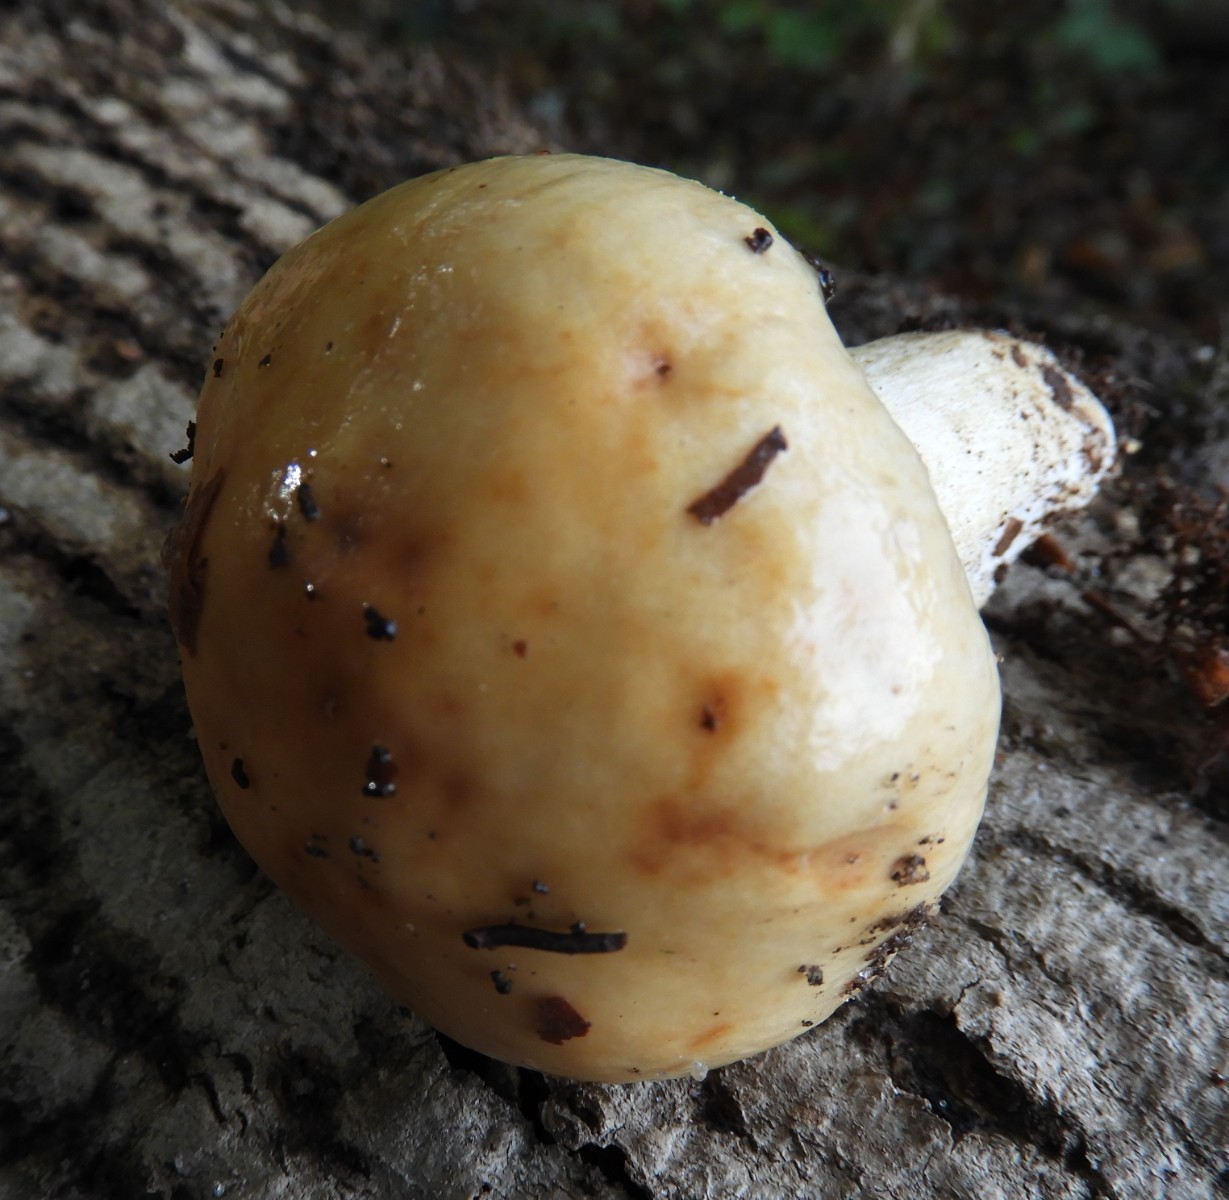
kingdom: Fungi
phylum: Basidiomycota
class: Agaricomycetes
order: Russulales
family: Russulaceae
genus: Russula
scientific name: Russula grata
